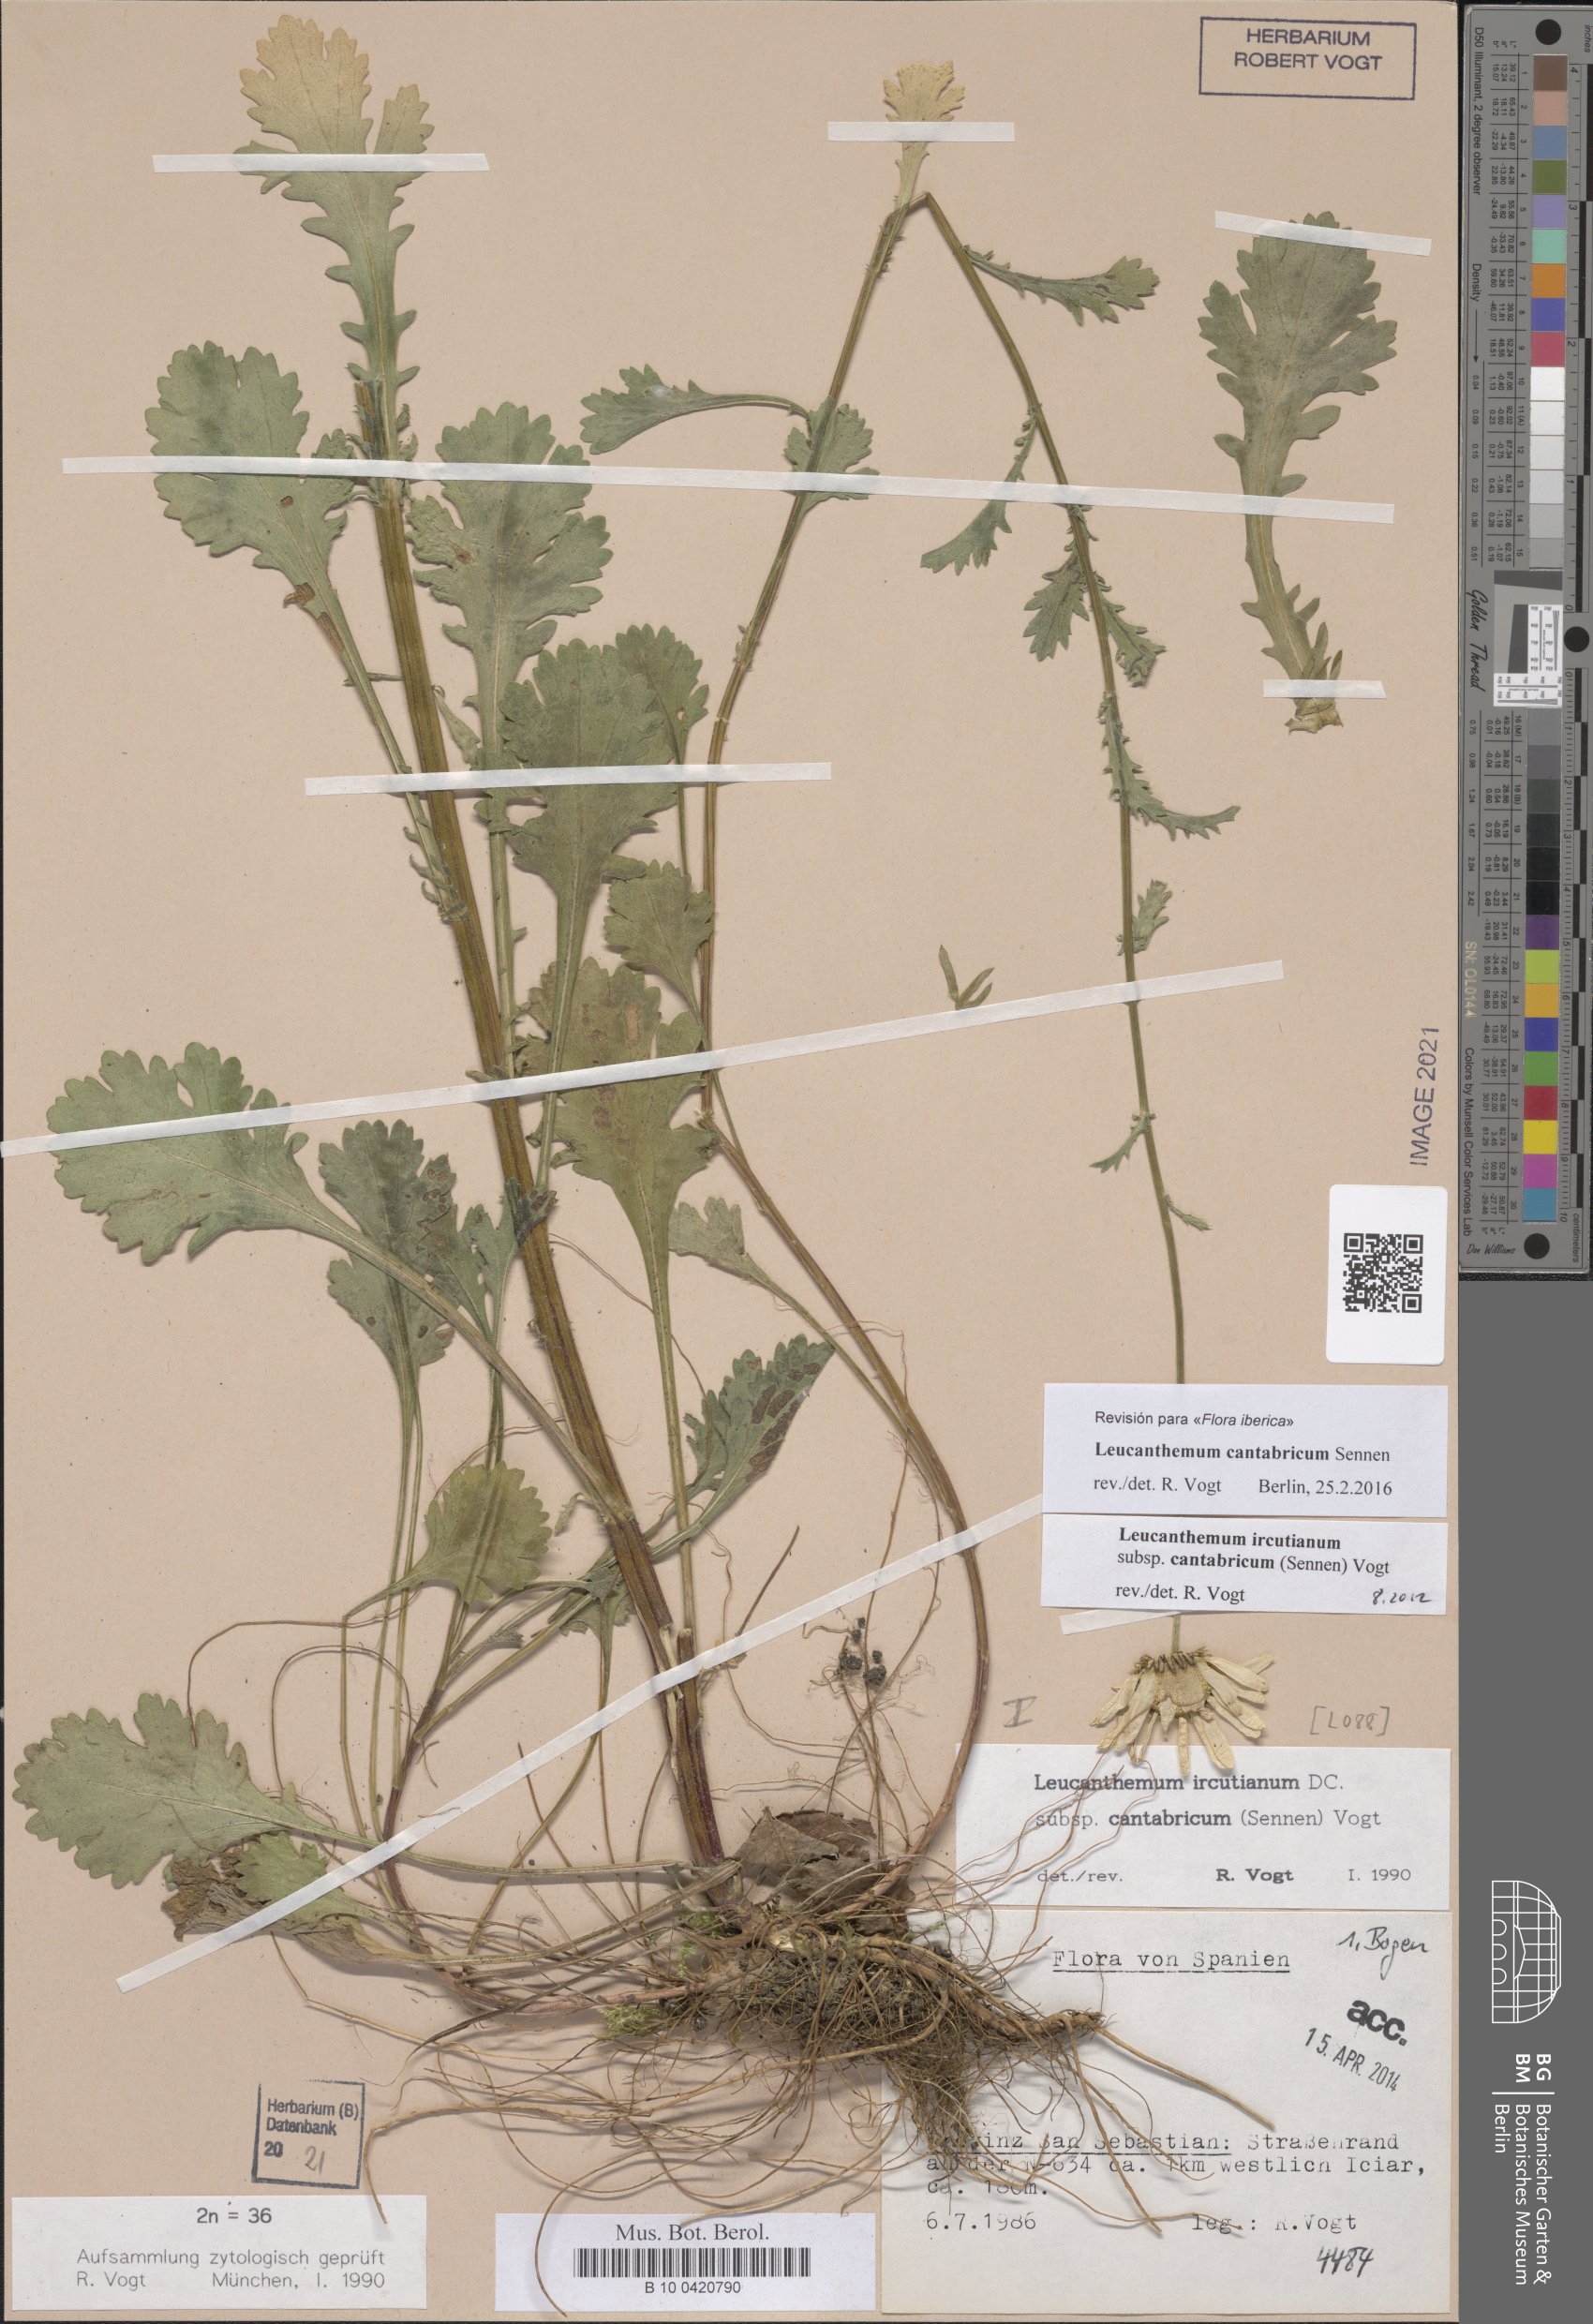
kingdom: Plantae
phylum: Tracheophyta
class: Magnoliopsida
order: Asterales
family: Asteraceae
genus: Leucanthemum
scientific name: Leucanthemum cantabricum
